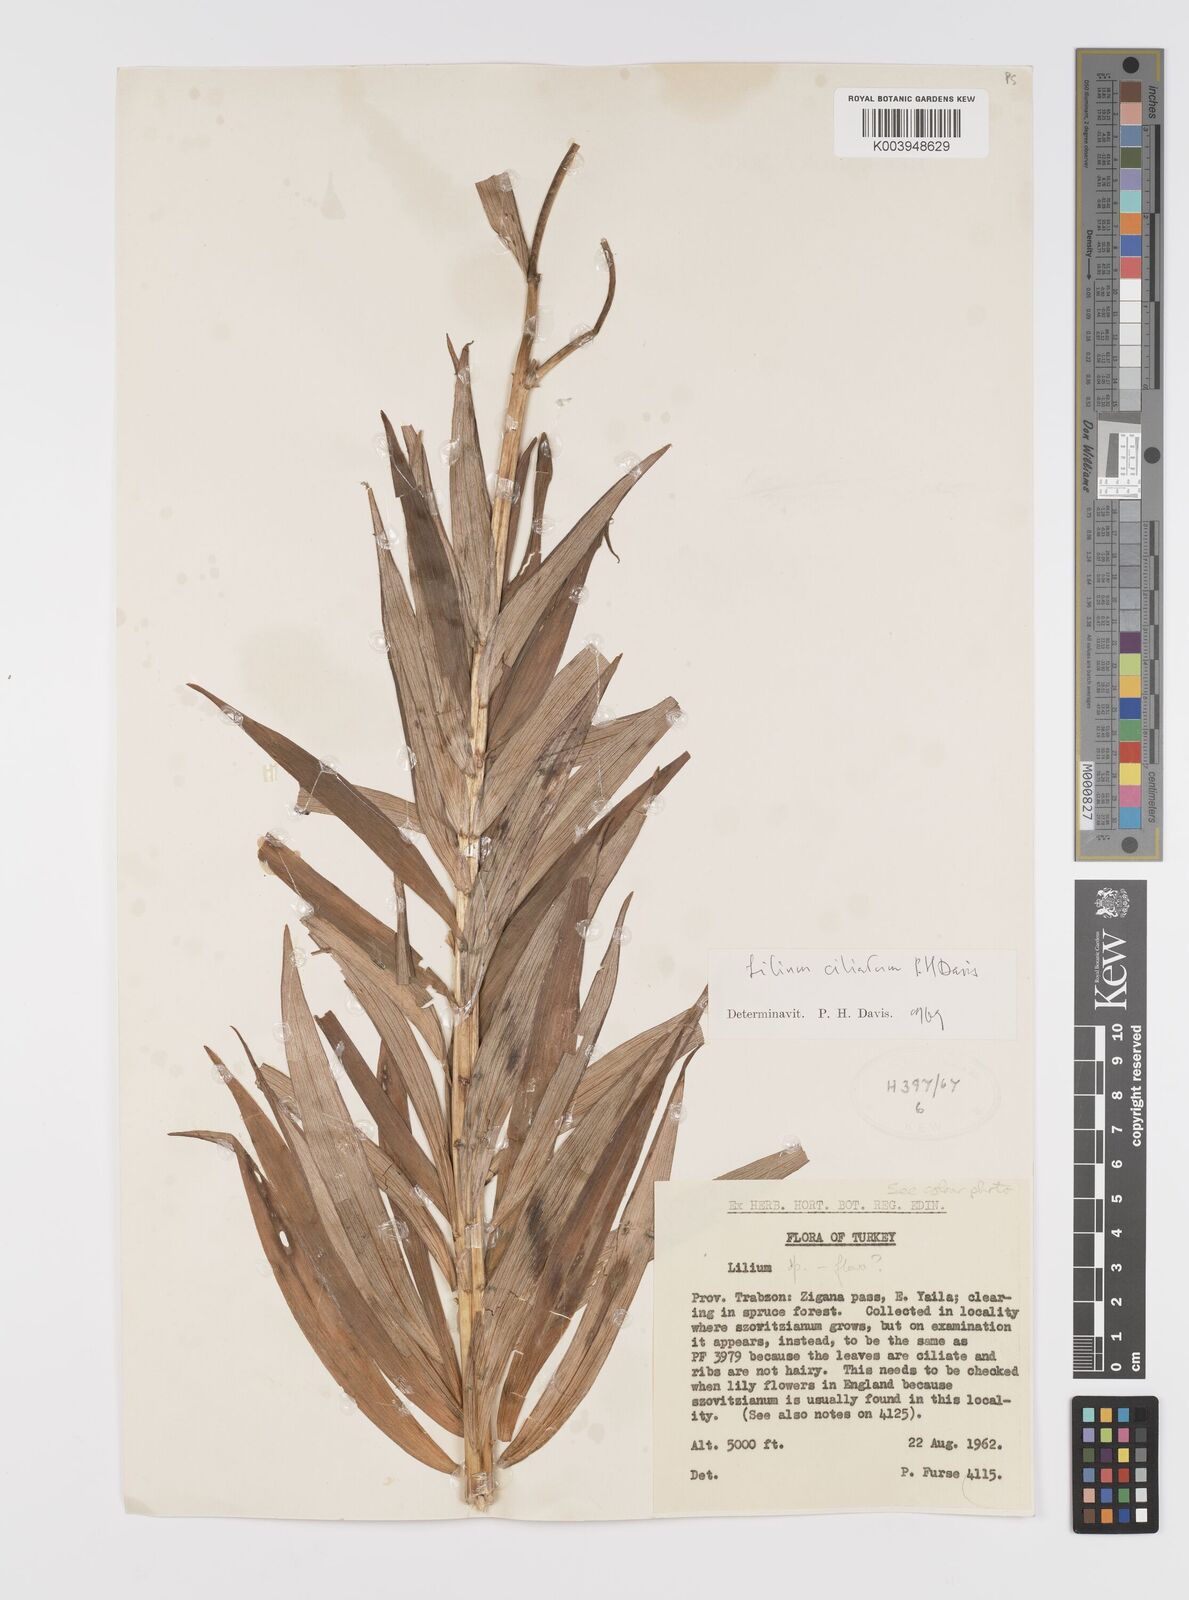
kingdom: Plantae
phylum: Tracheophyta
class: Liliopsida
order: Liliales
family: Liliaceae
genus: Lilium
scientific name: Lilium ciliatum
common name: Ciliate lily
